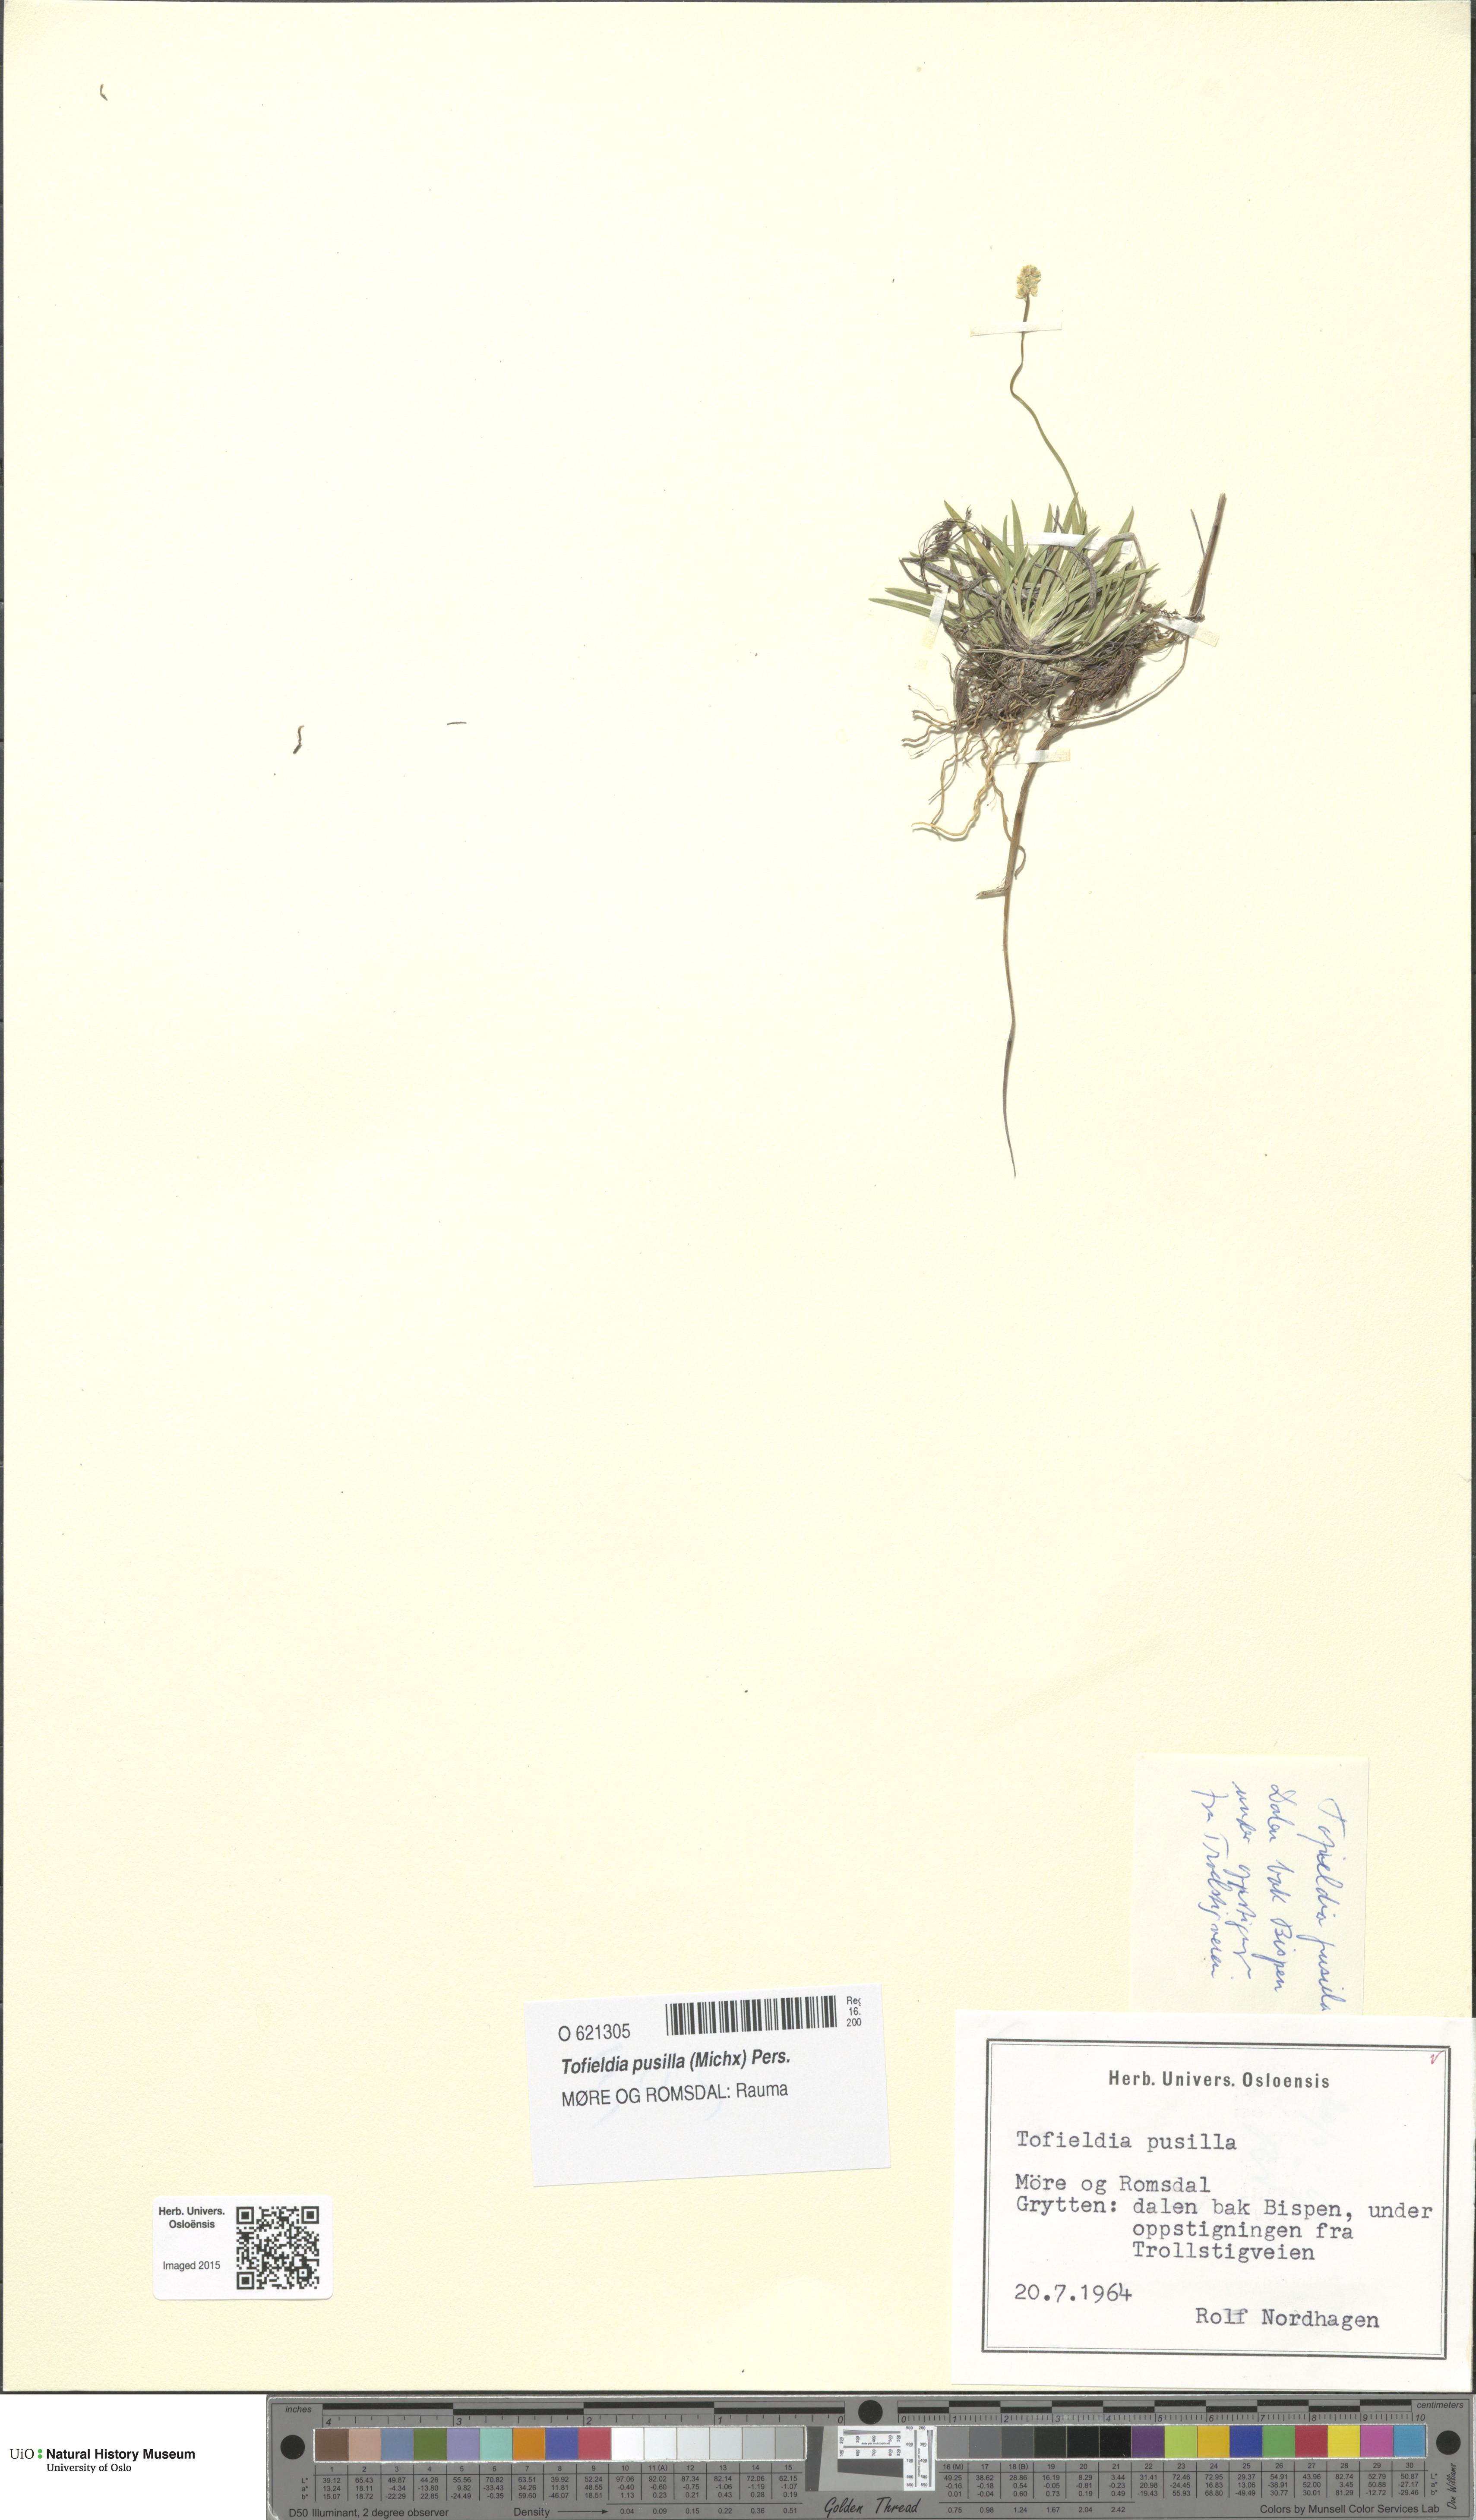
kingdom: Plantae
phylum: Tracheophyta
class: Liliopsida
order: Alismatales
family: Tofieldiaceae
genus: Tofieldia
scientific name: Tofieldia pusilla
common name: Scottish false asphodel
